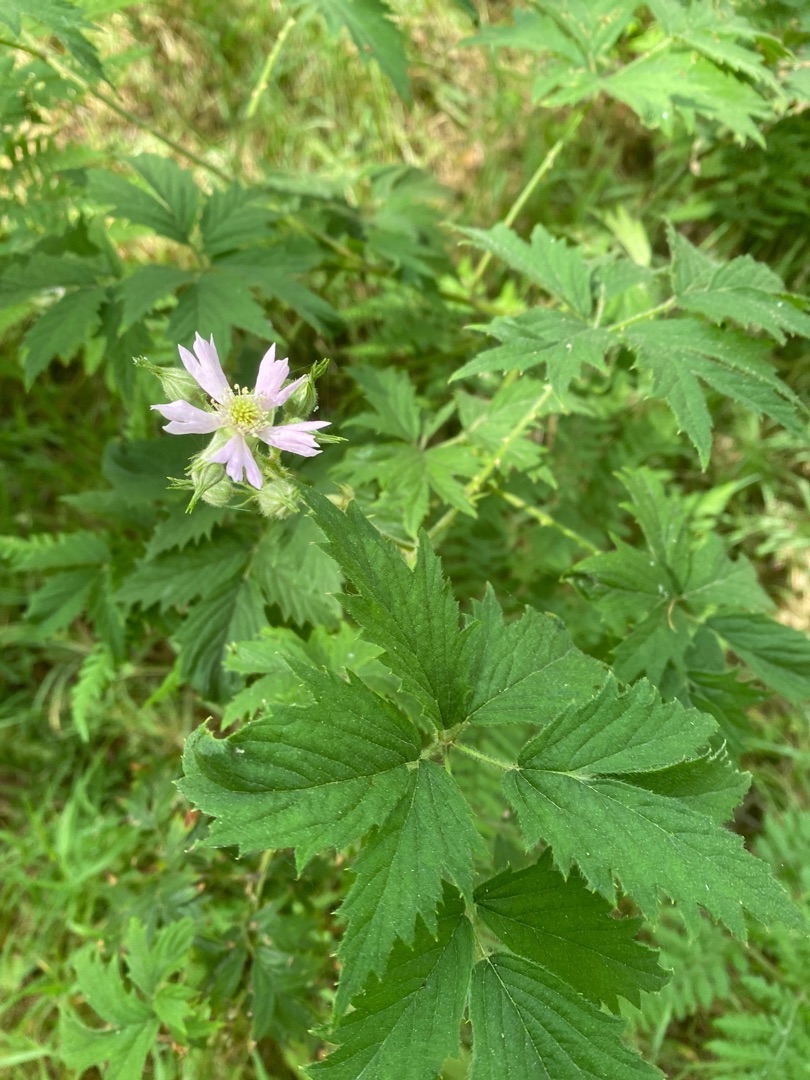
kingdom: Plantae
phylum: Tracheophyta
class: Magnoliopsida
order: Rosales
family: Rosaceae
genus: Rubus
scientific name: Rubus laciniatus
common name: Fliget brombær
